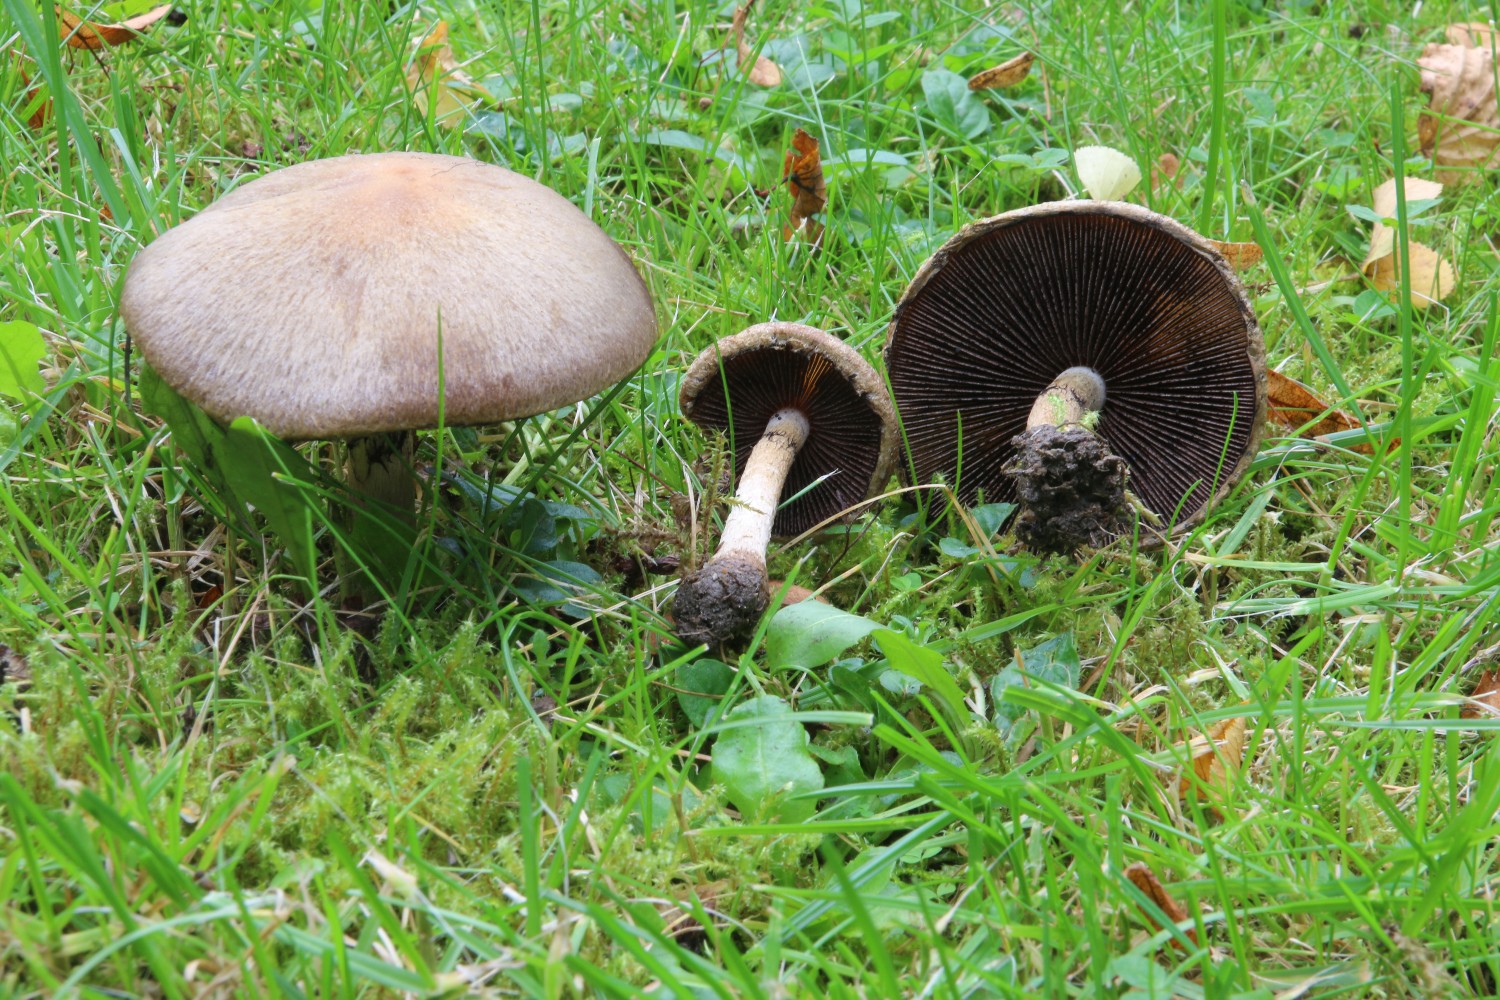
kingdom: Fungi
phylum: Basidiomycota
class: Agaricomycetes
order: Agaricales
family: Psathyrellaceae
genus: Lacrymaria
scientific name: Lacrymaria lacrymabunda
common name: grædende mørkhat
